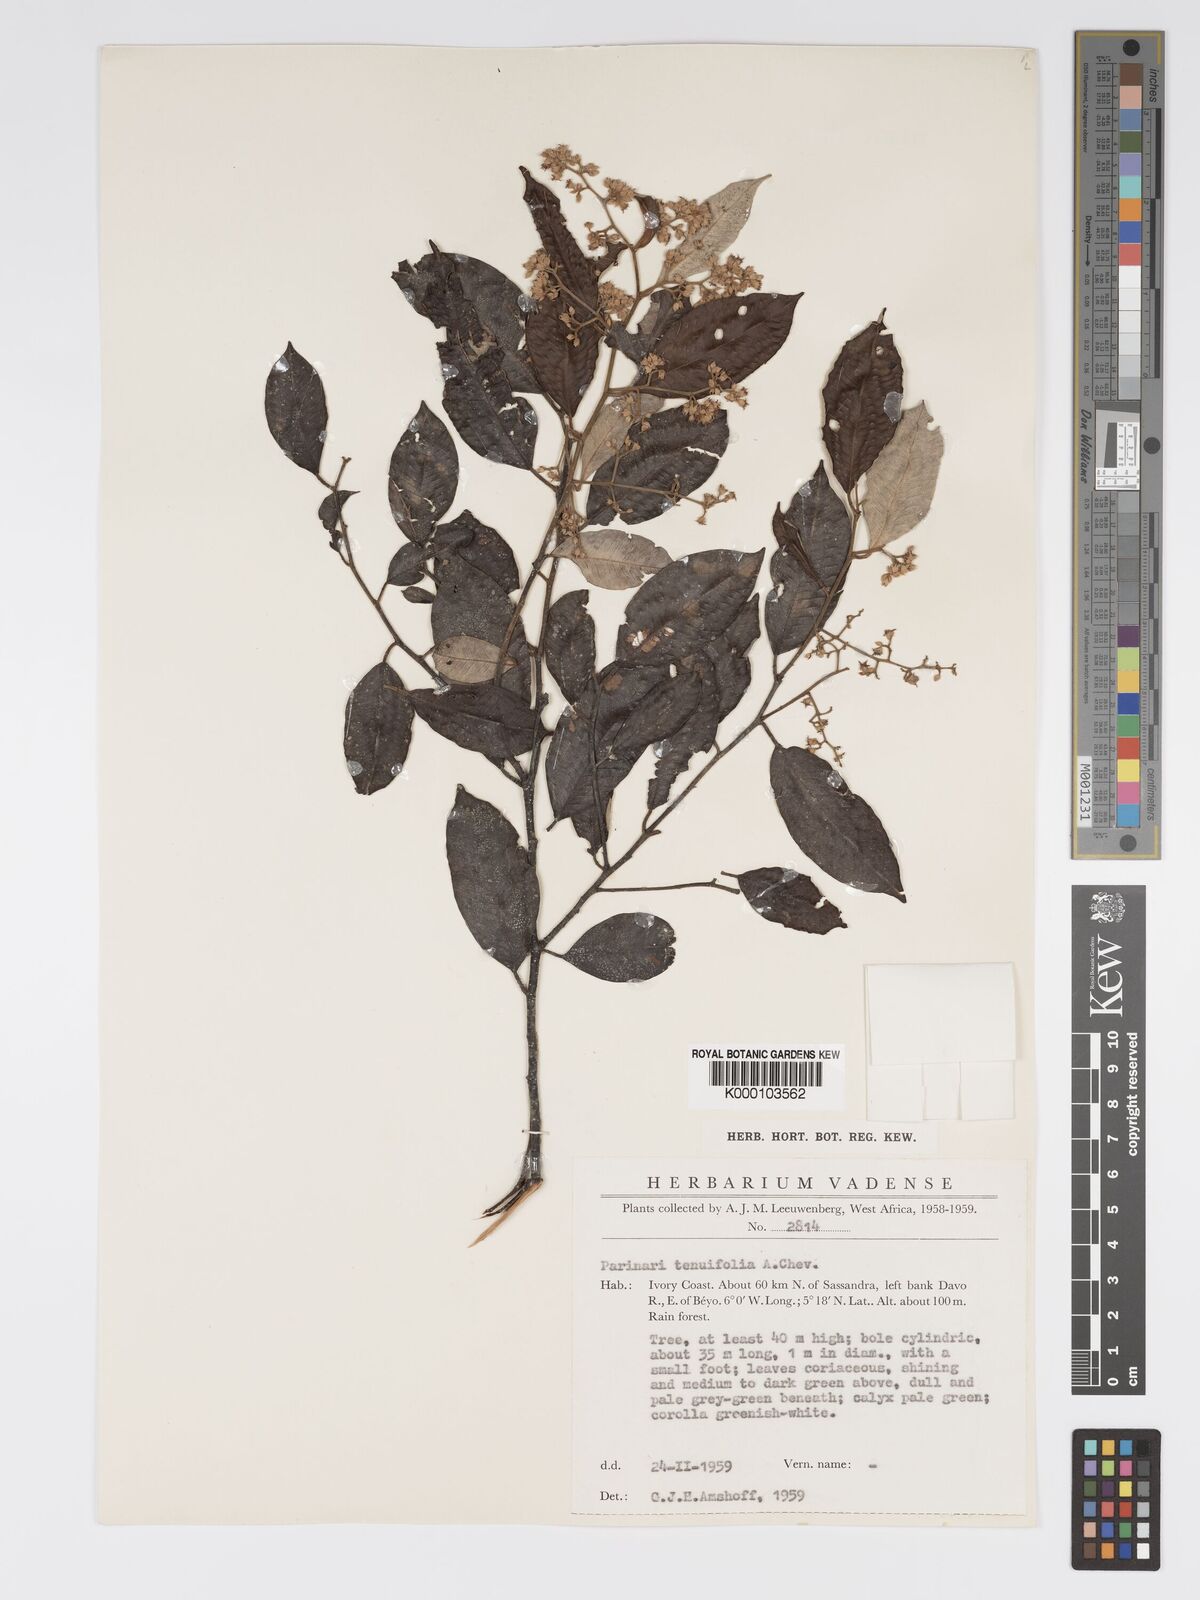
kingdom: Plantae
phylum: Tracheophyta
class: Magnoliopsida
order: Malpighiales
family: Chrysobalanaceae
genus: Parinari
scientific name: Parinari excelsa
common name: Guinea-plum
